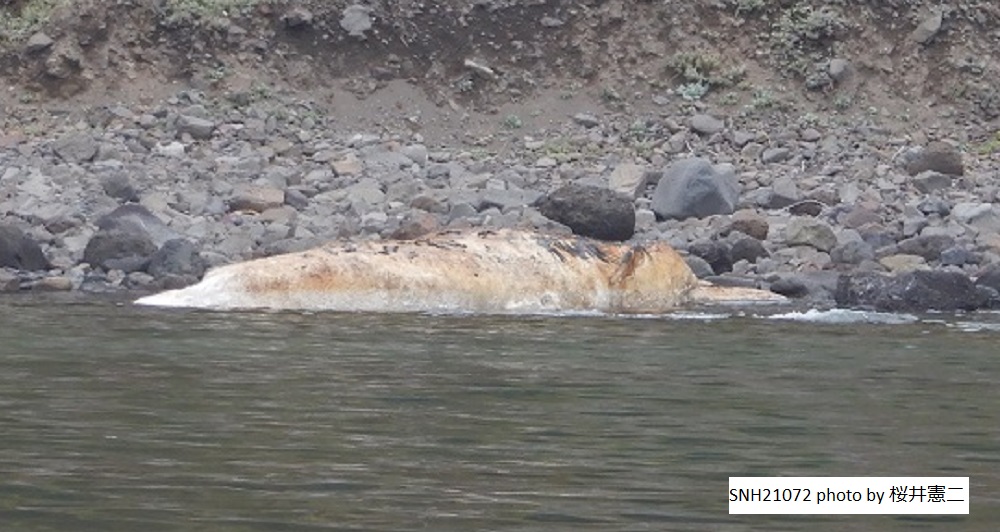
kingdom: Animalia
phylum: Chordata
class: Mammalia
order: Cetacea
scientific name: Cetacea
